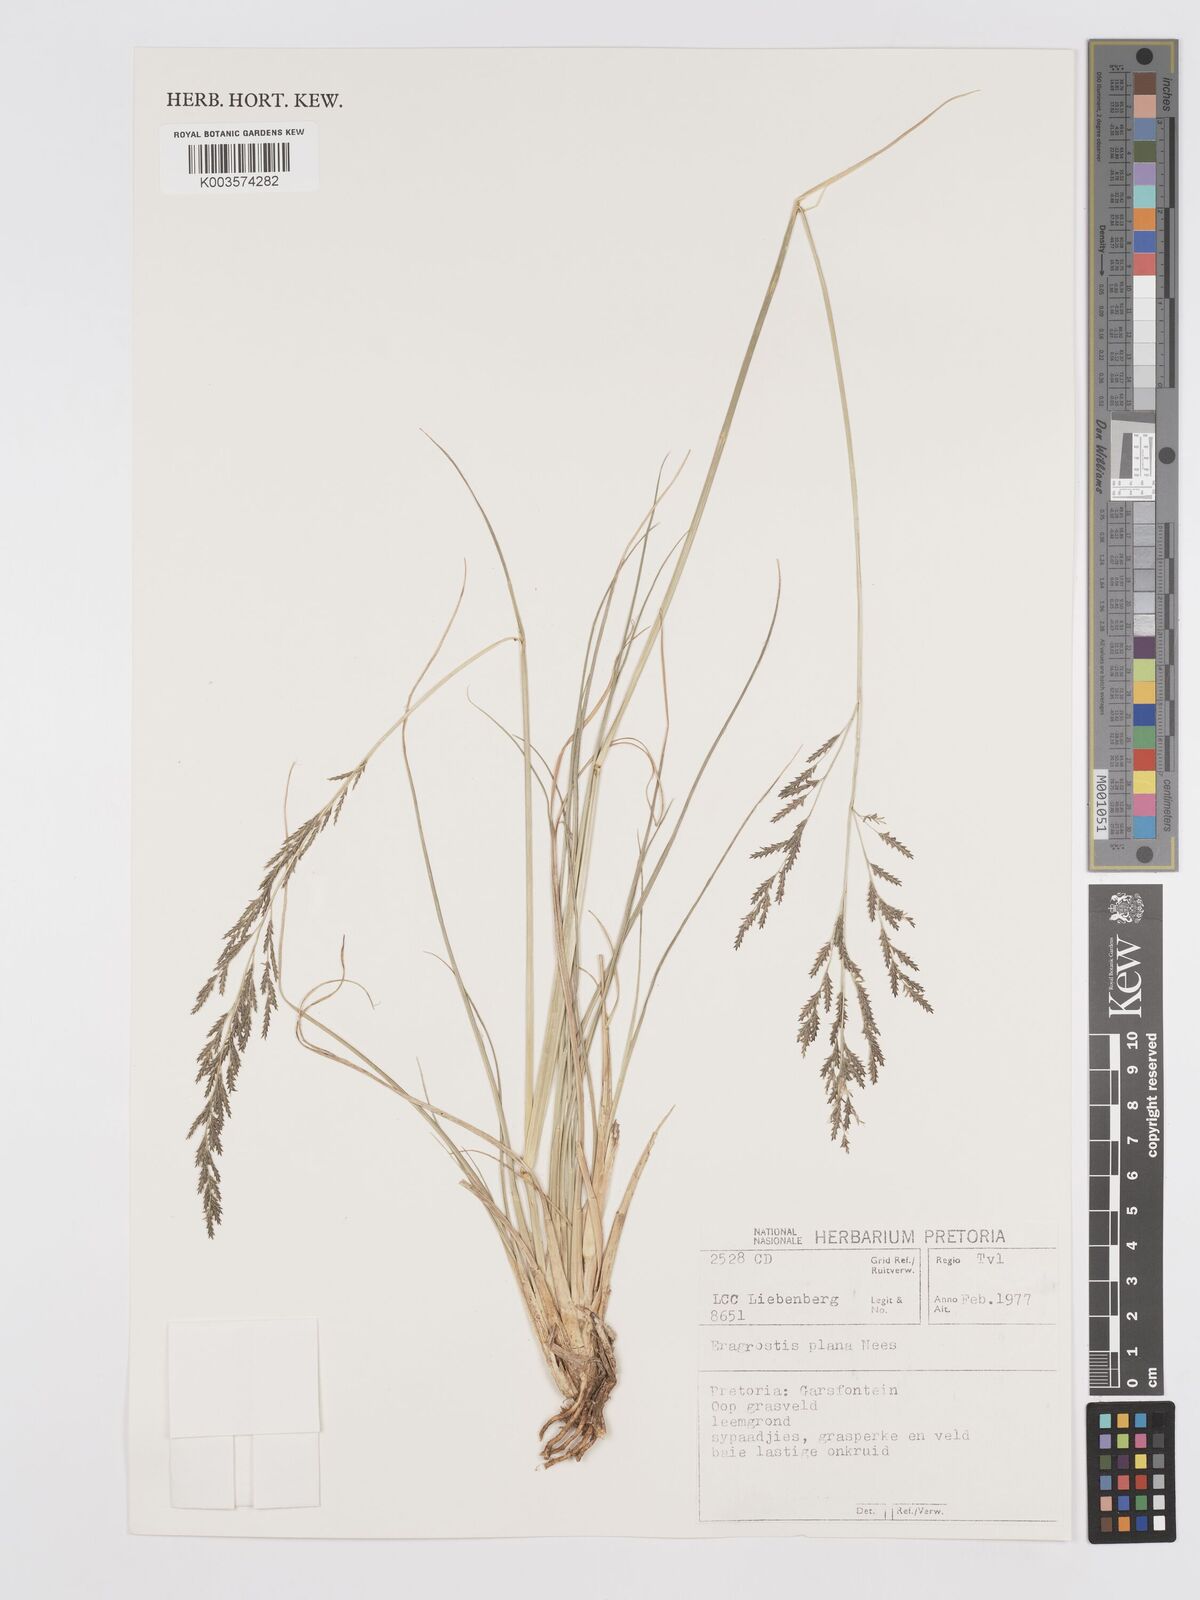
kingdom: Plantae
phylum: Tracheophyta
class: Liliopsida
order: Poales
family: Poaceae
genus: Eragrostis
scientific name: Eragrostis plana
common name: South african lovegrass
